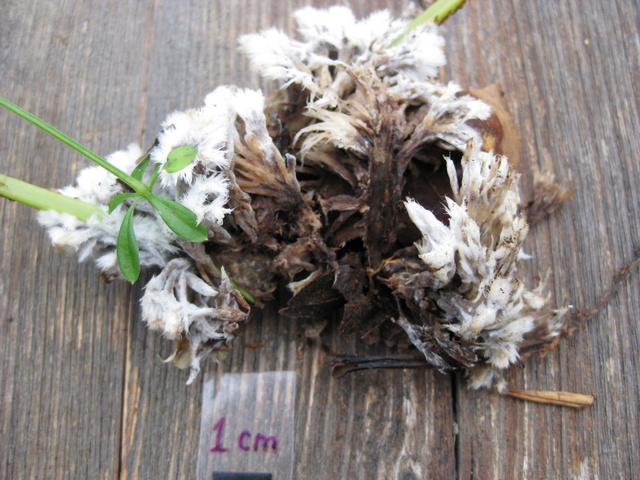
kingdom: Fungi
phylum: Basidiomycota
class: Agaricomycetes
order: Thelephorales
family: Thelephoraceae
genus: Thelephora
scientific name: Thelephora penicillata
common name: fladtrådt frynsesvamp
